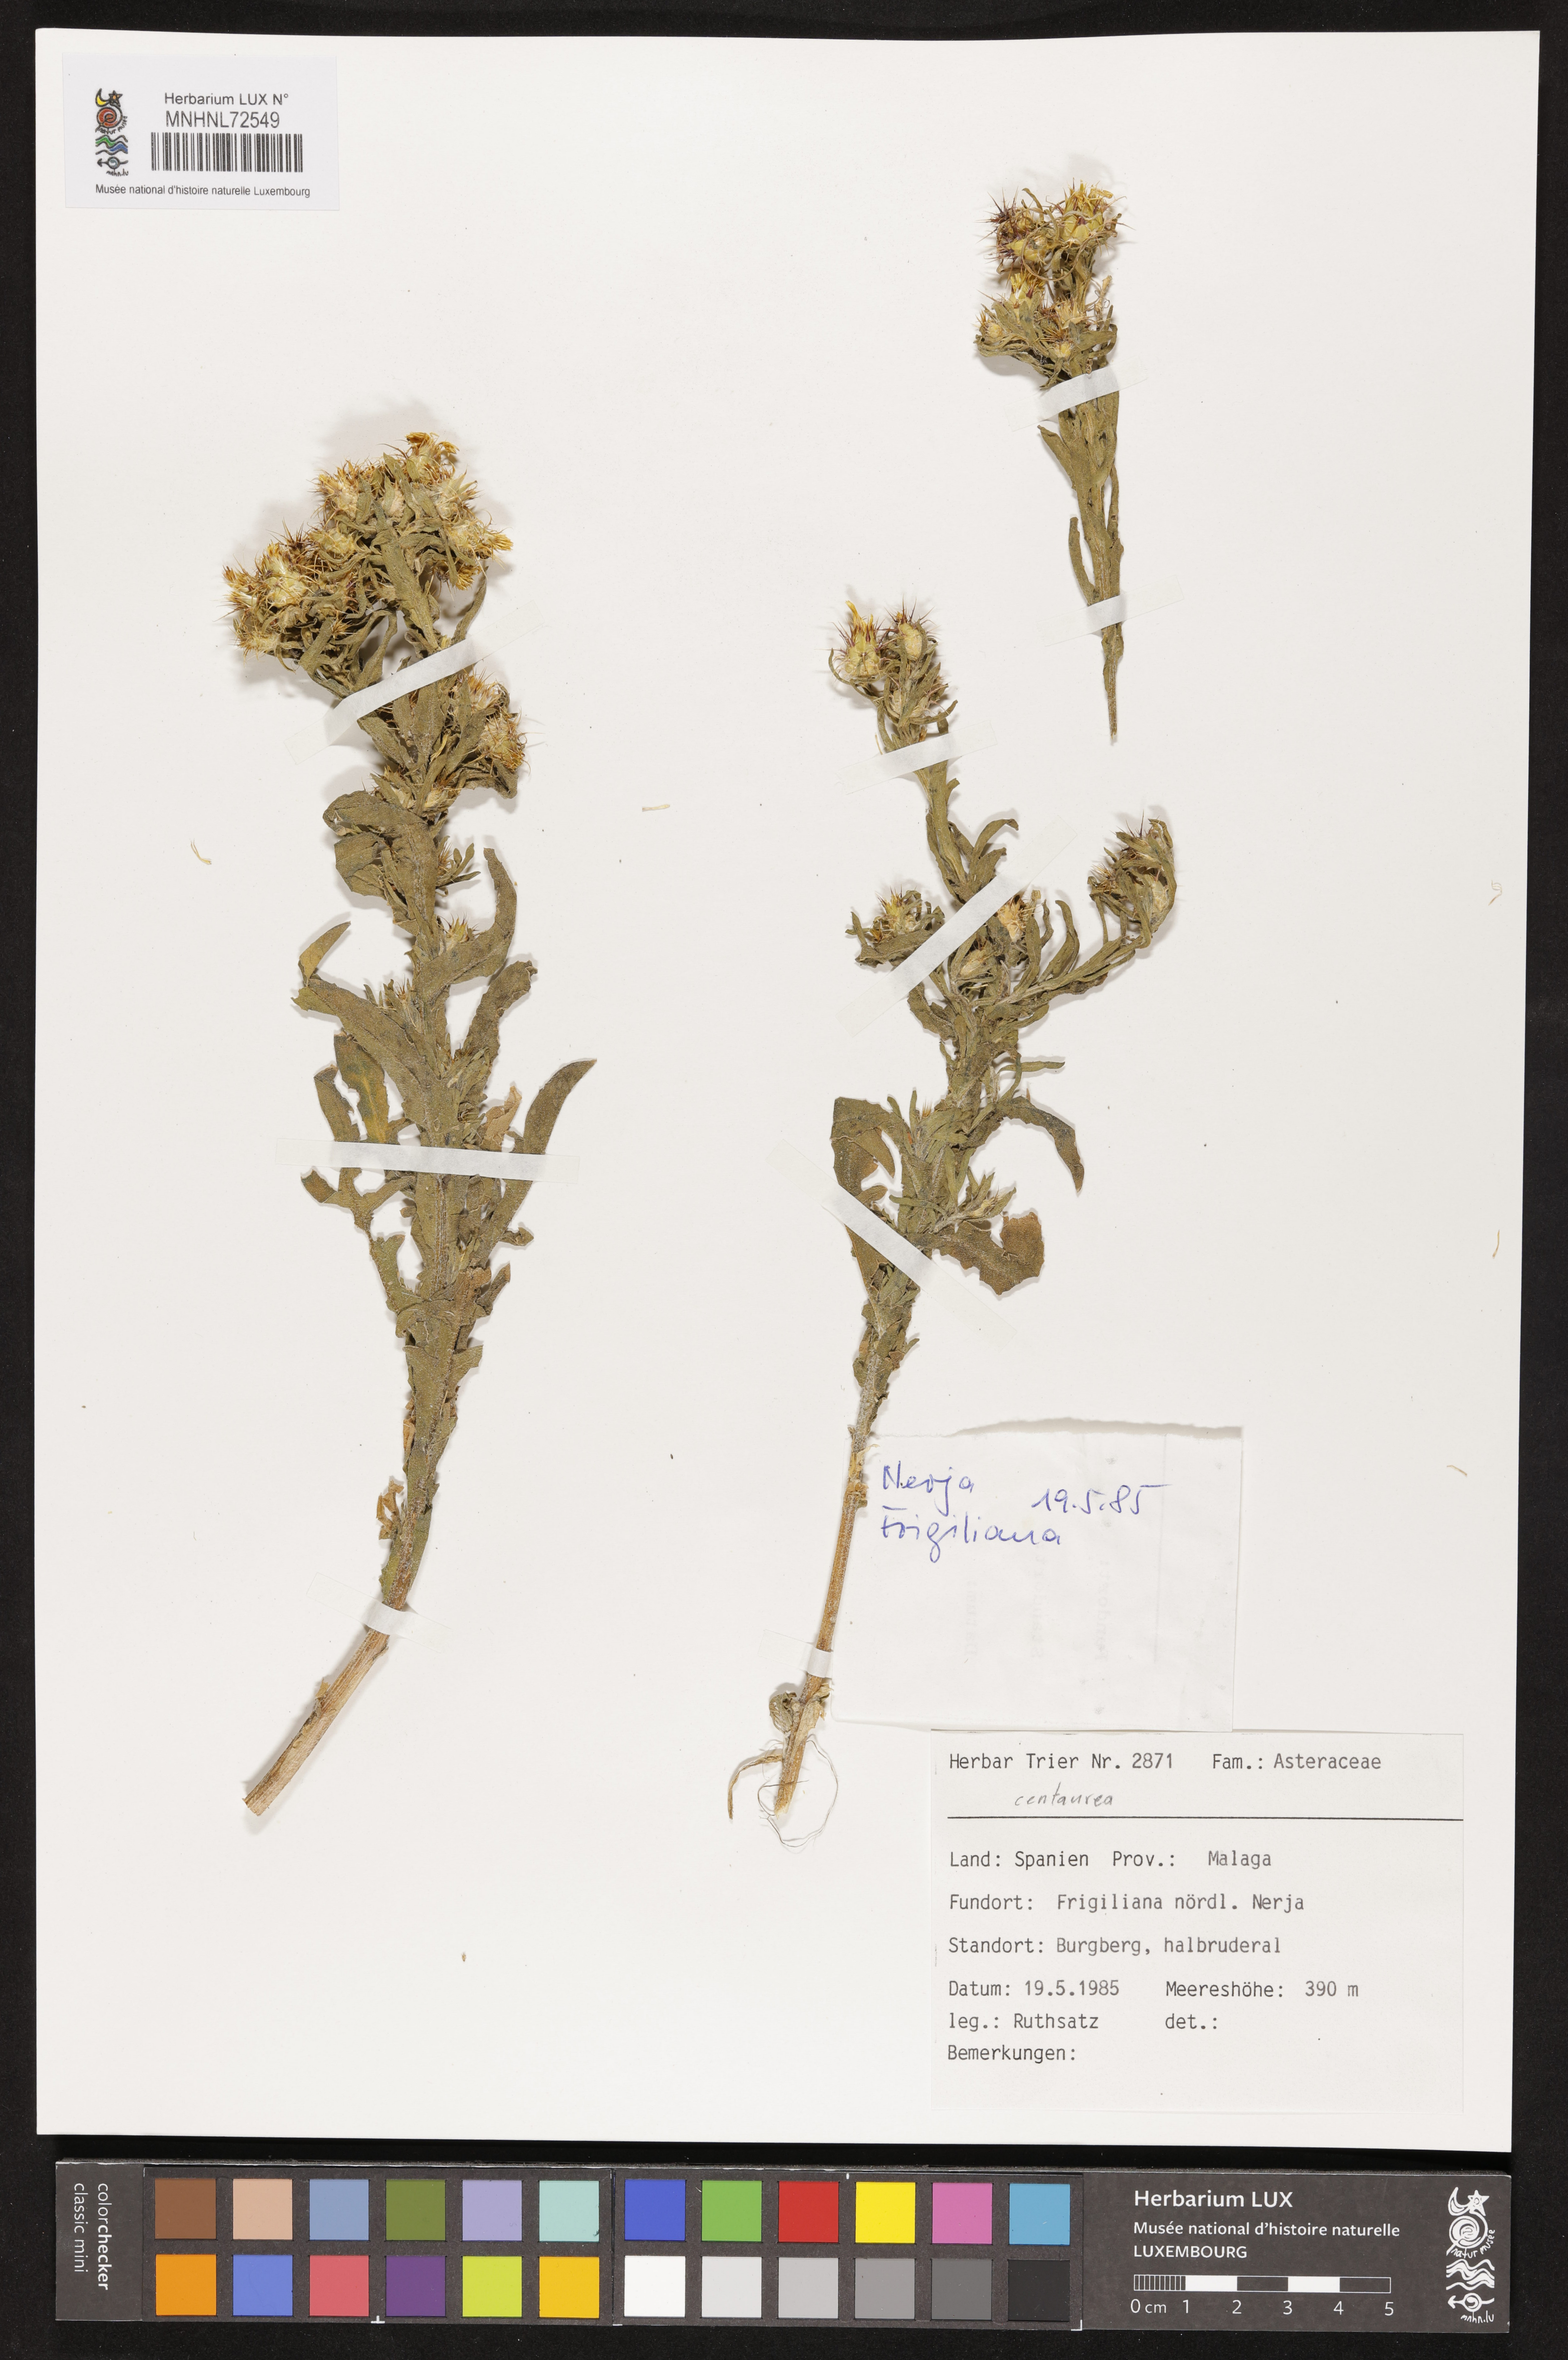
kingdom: Plantae
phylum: Tracheophyta
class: Magnoliopsida
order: Asterales
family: Asteraceae
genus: Centaurea
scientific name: Centaurea
